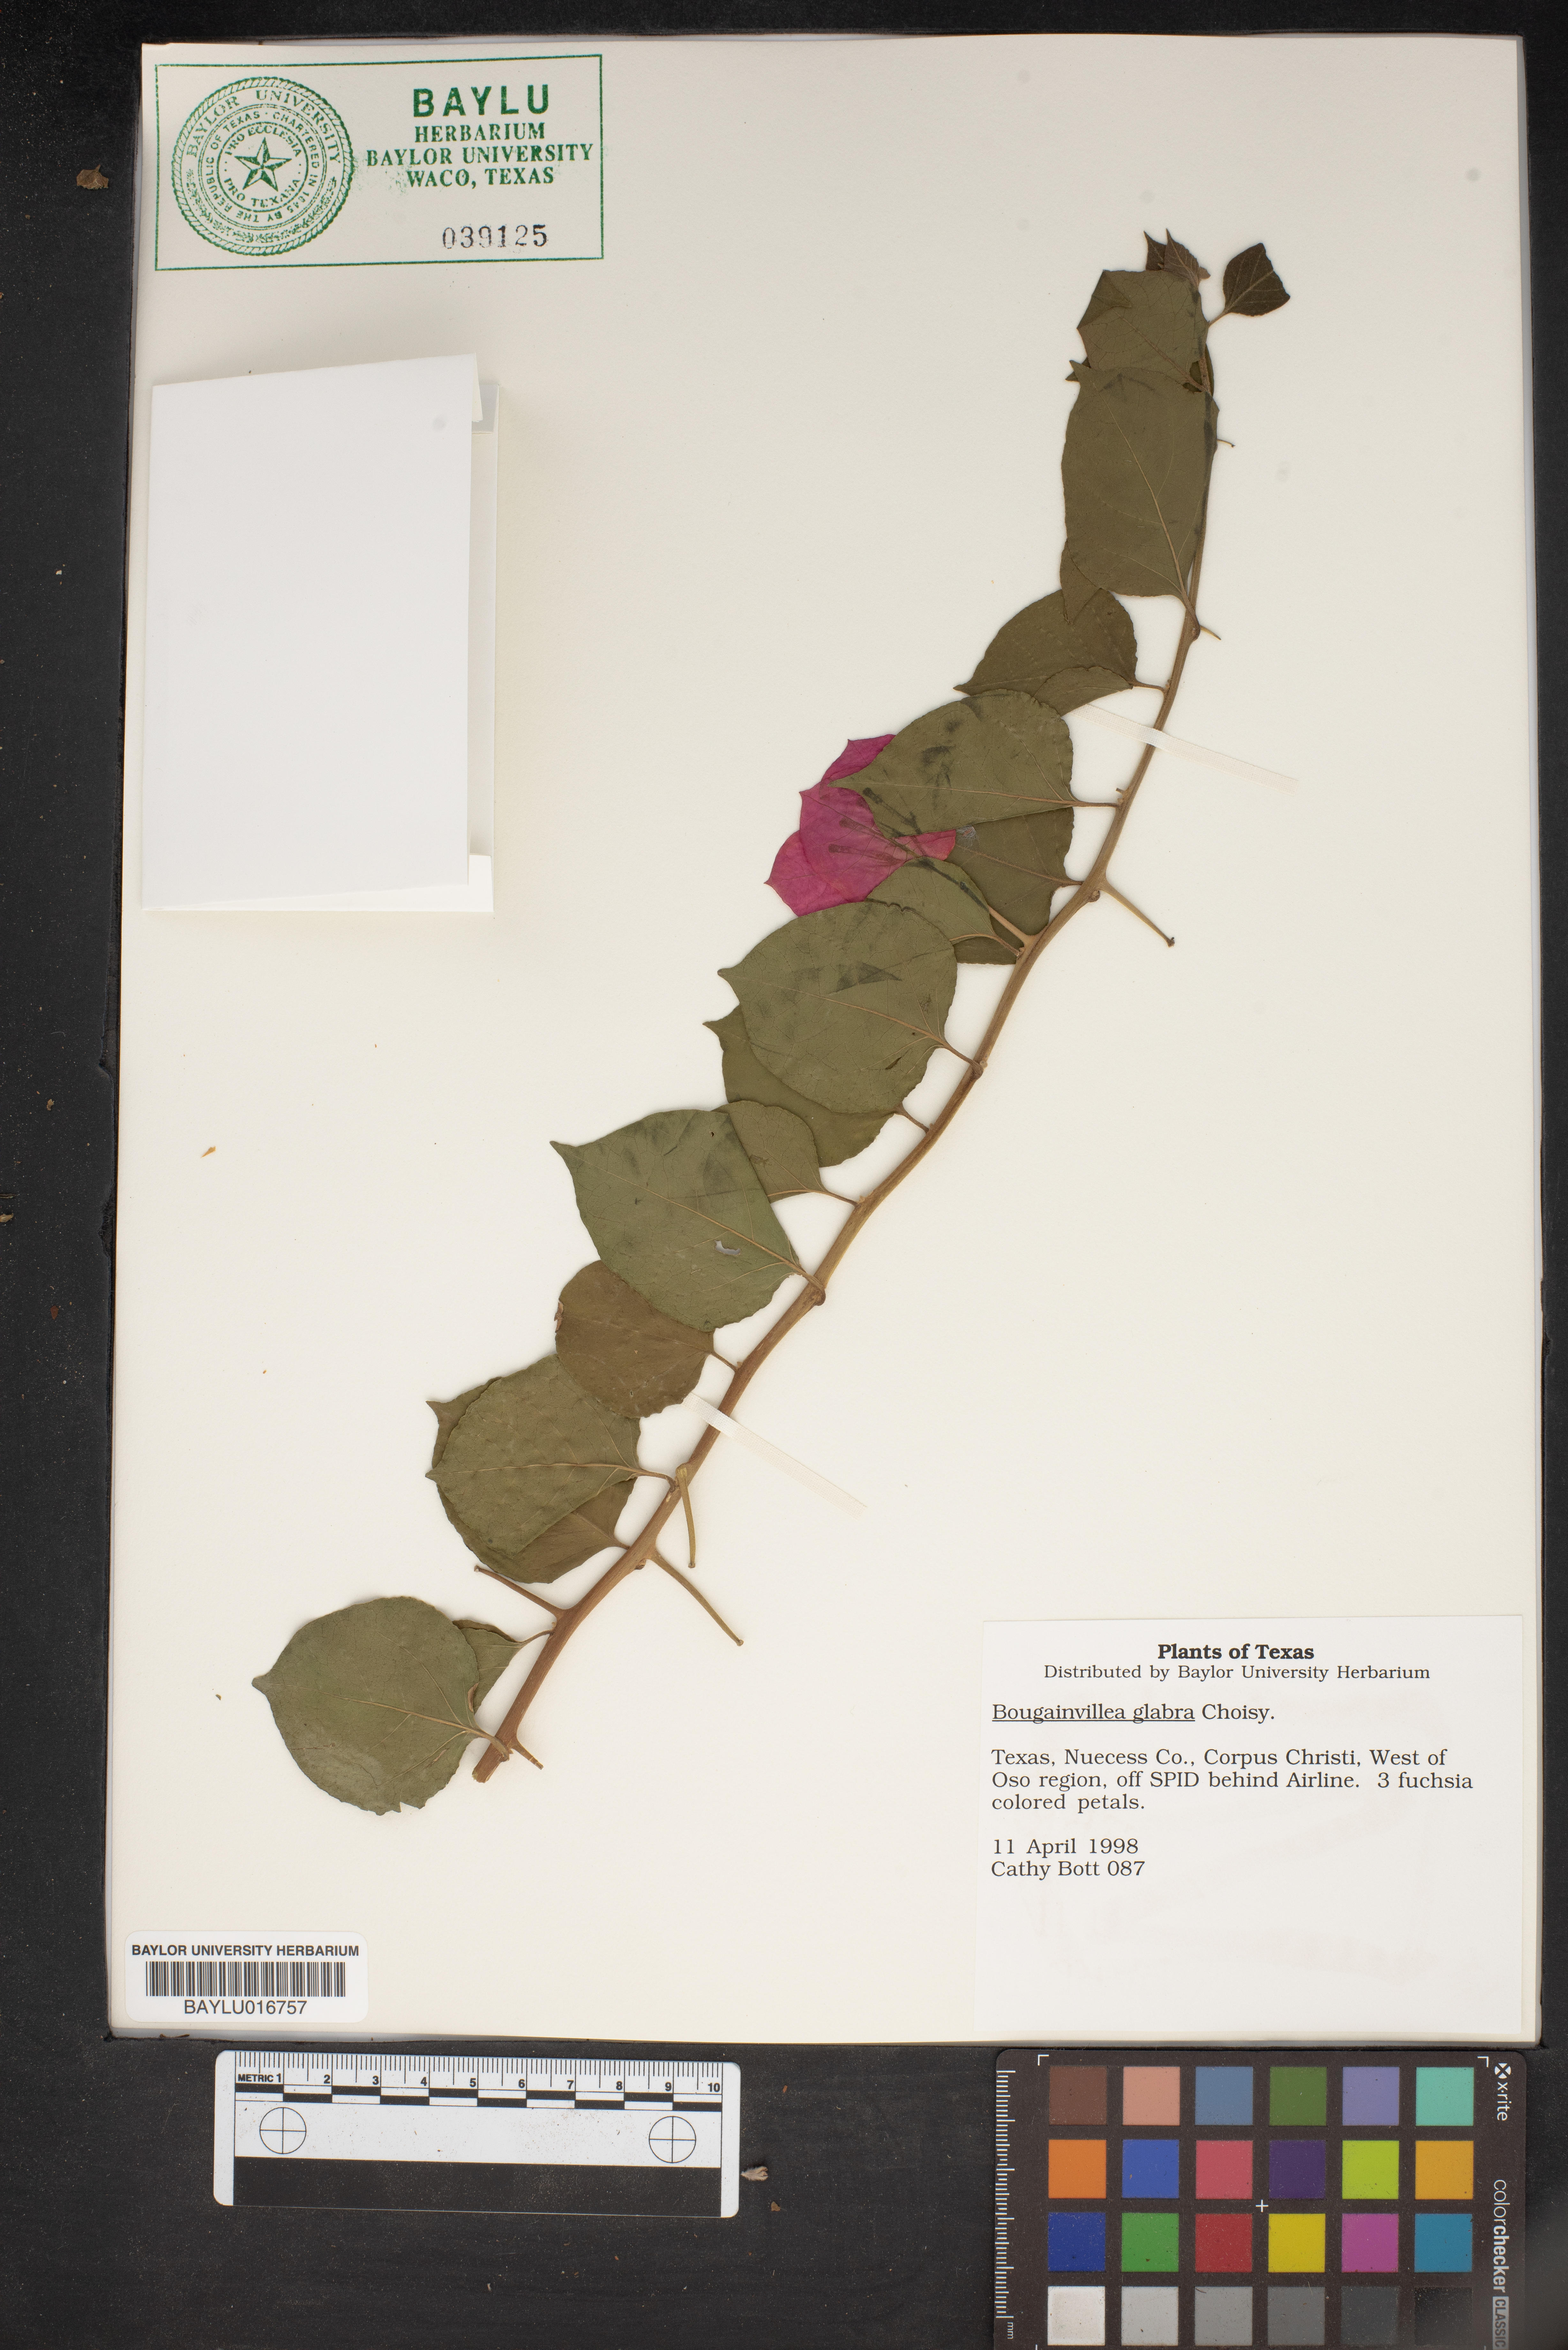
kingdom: Plantae
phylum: Tracheophyta
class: Magnoliopsida
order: Caryophyllales
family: Nyctaginaceae
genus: Bougainvillea
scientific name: Bougainvillea glabra
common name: Paperflower
